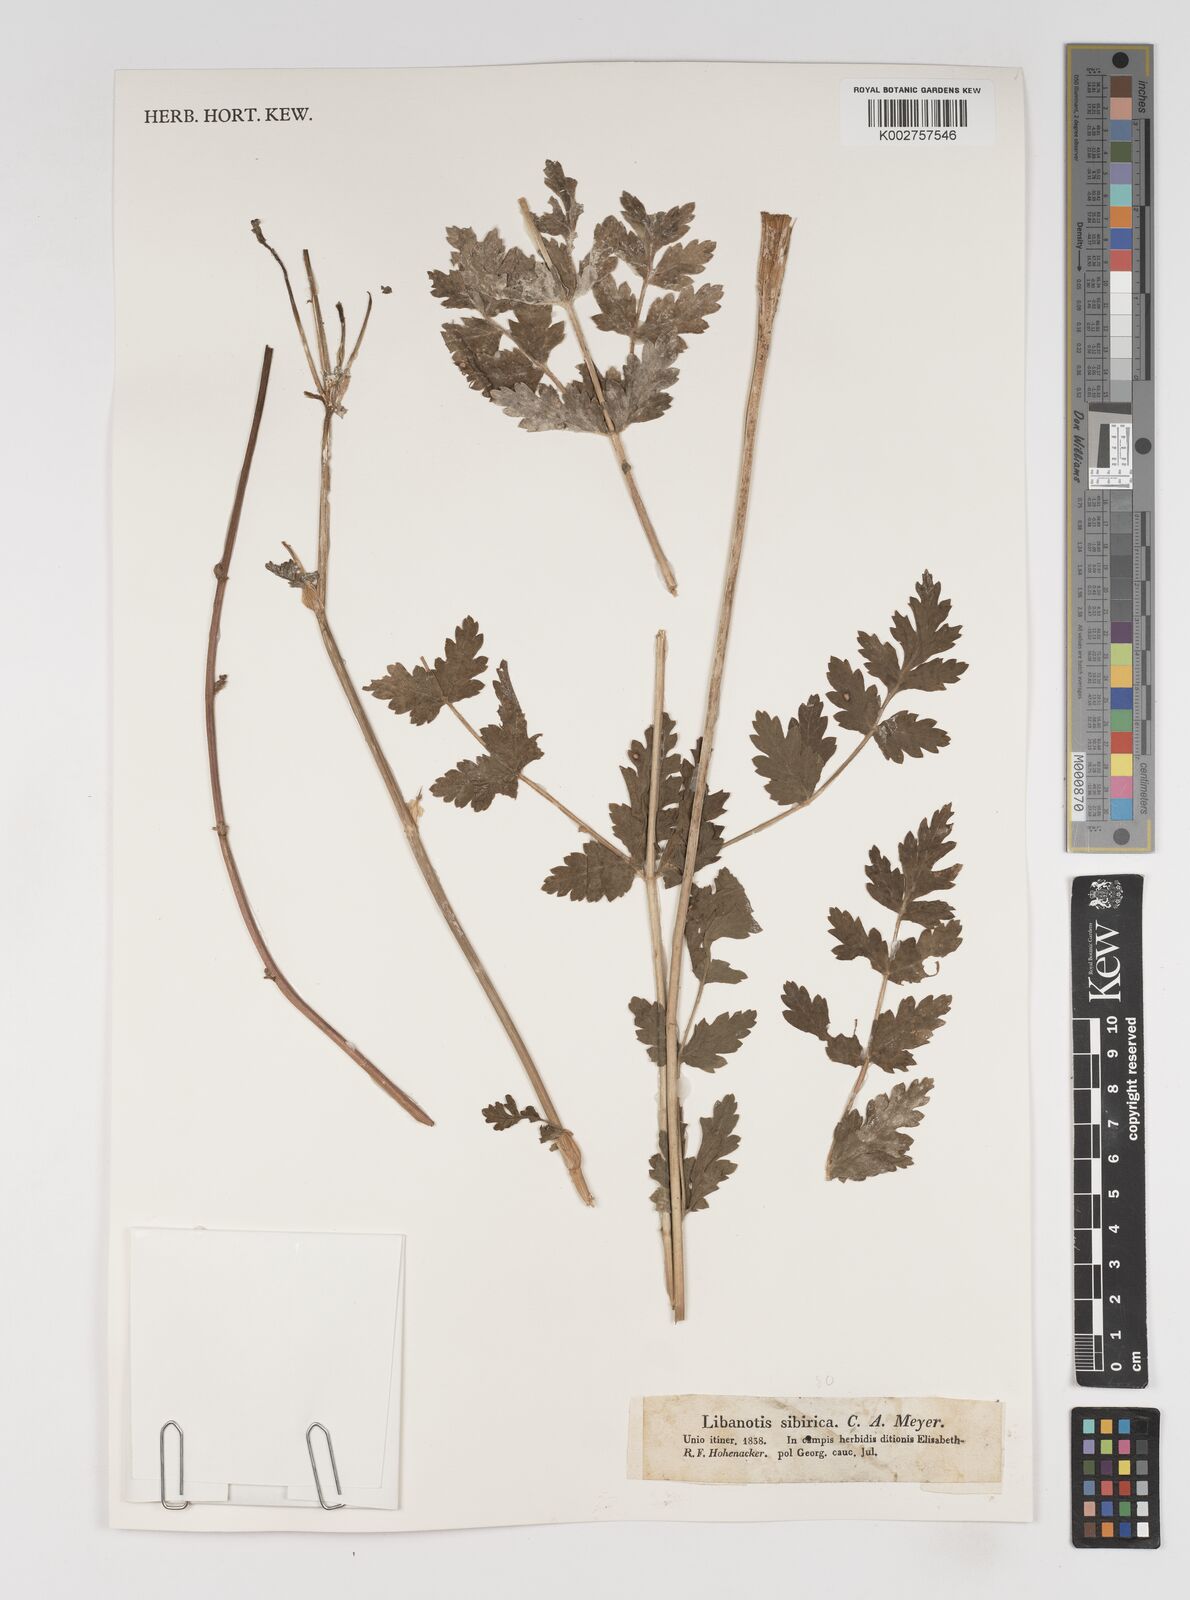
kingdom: Plantae
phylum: Tracheophyta
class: Magnoliopsida
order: Apiales
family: Apiaceae
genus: Seseli
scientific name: Seseli libanotis
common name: Mooncarrot
